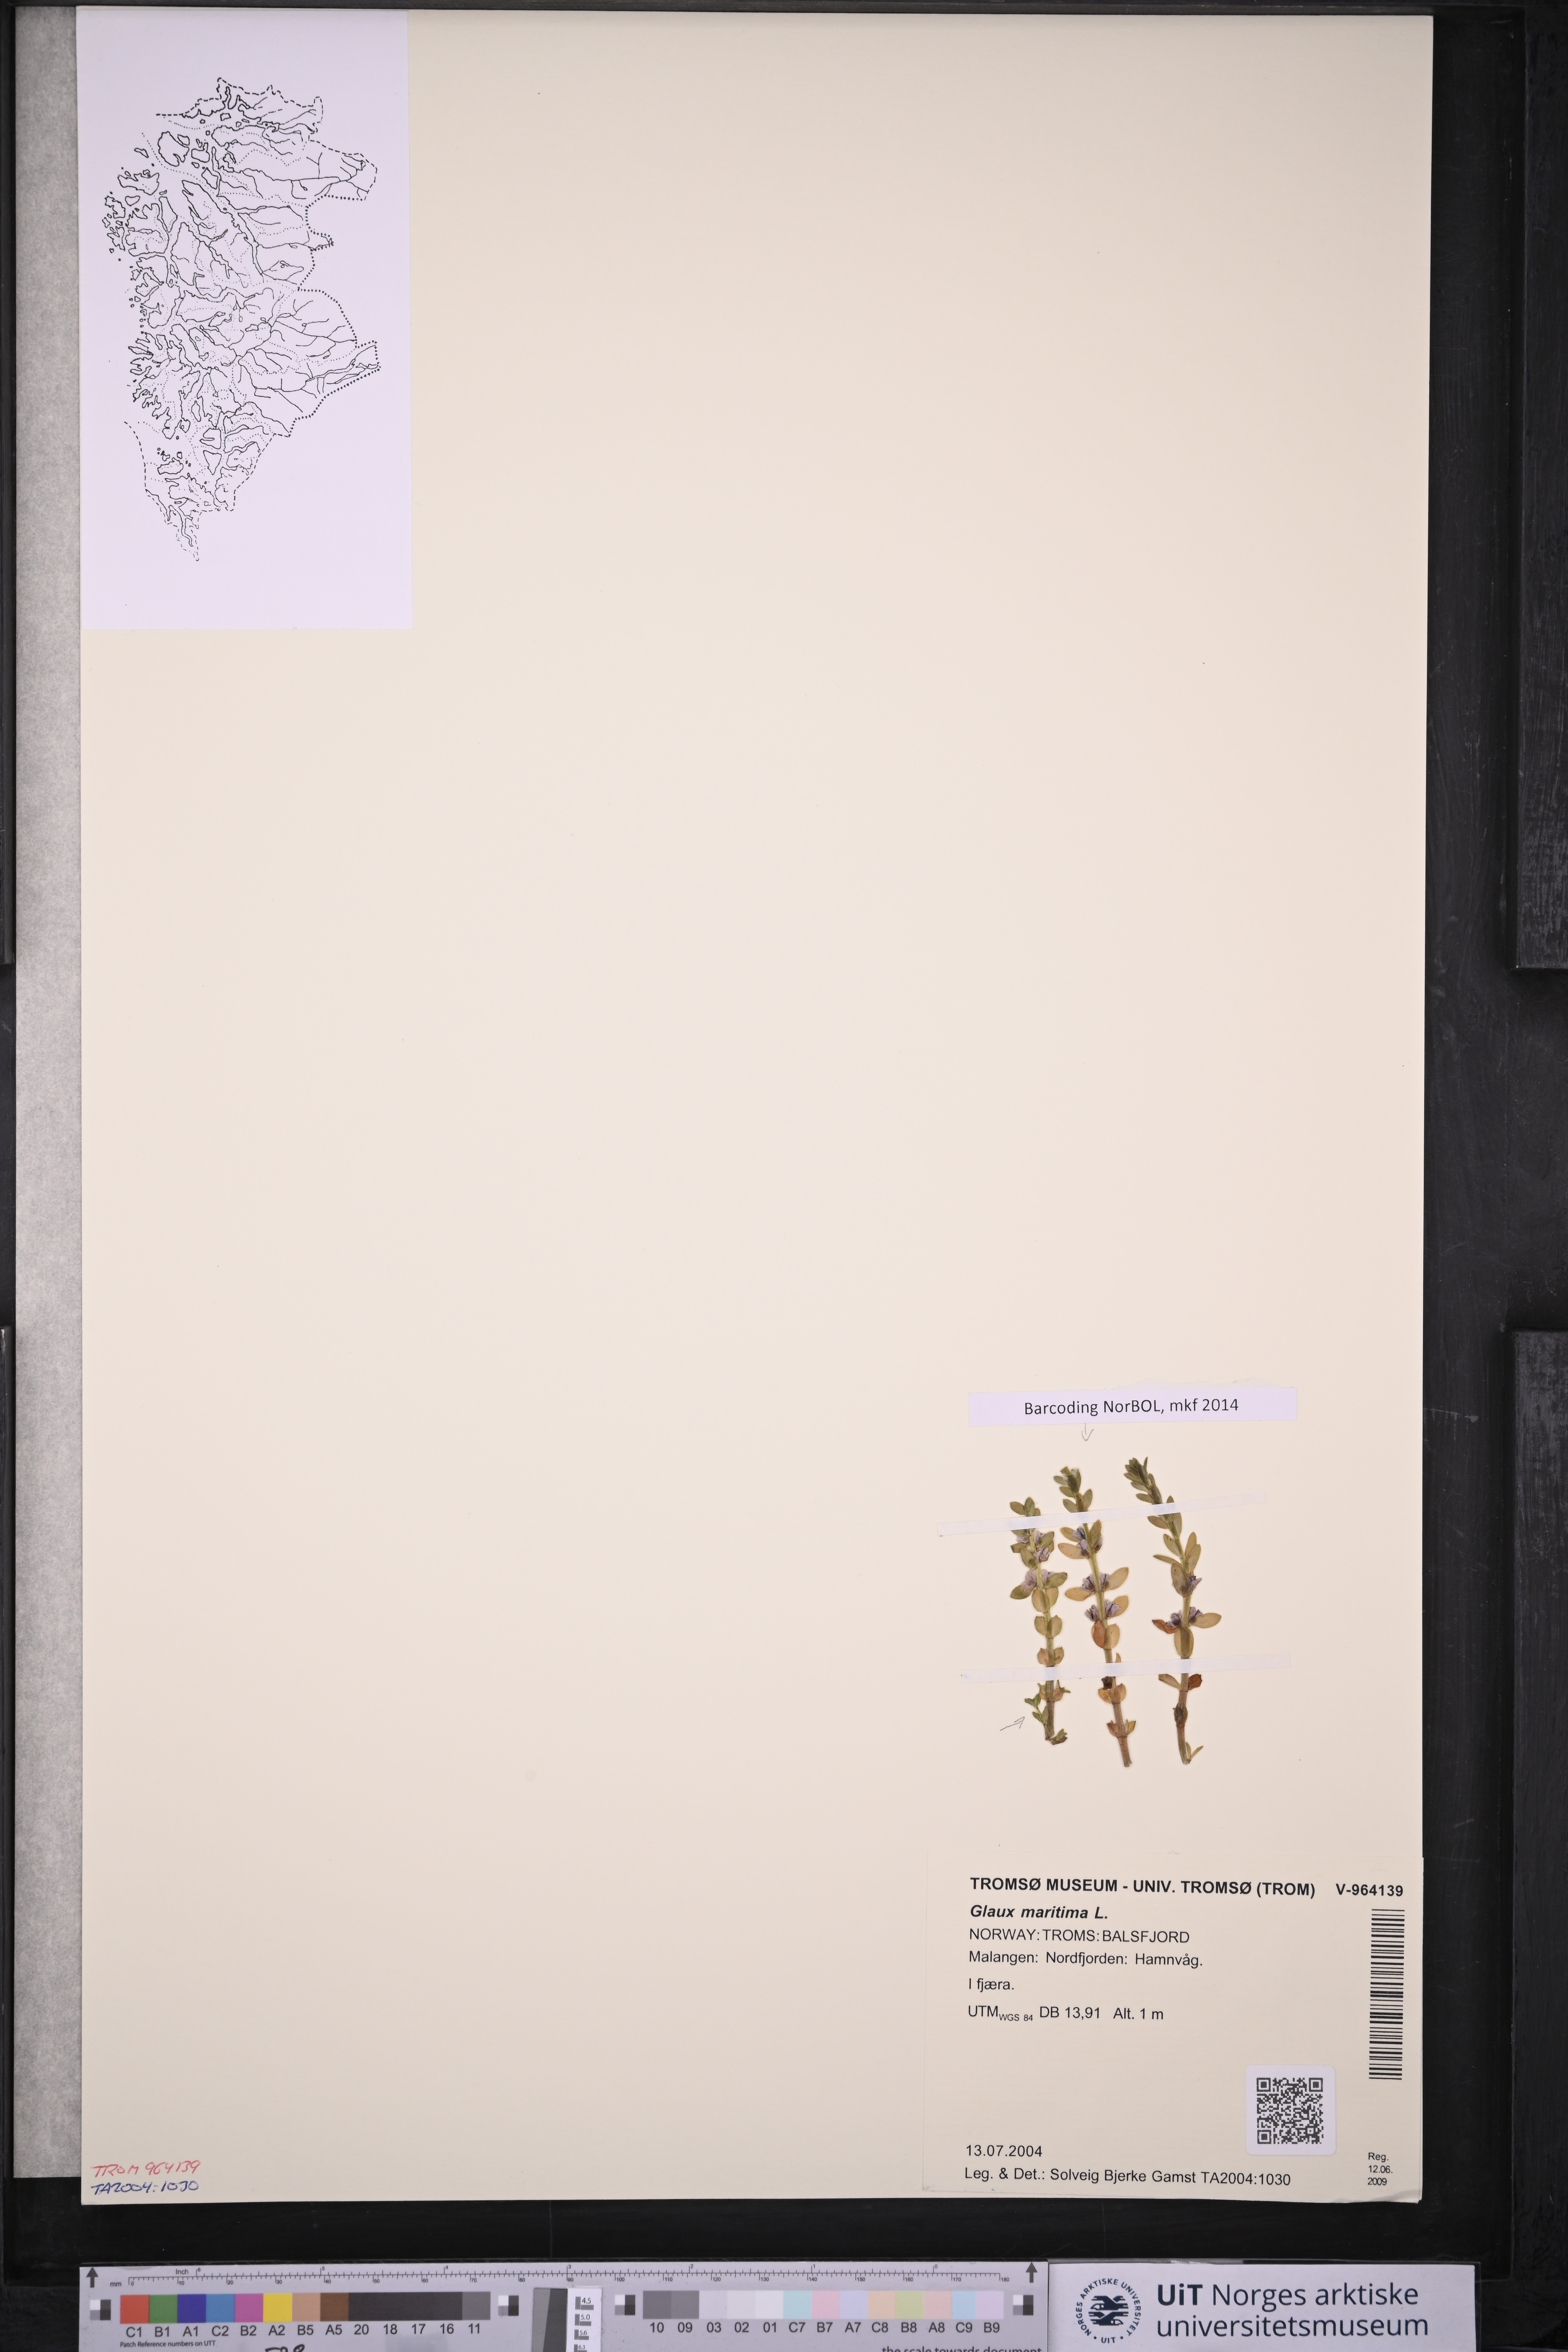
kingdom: Plantae
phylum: Tracheophyta
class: Magnoliopsida
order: Ericales
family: Primulaceae
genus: Lysimachia
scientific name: Lysimachia maritima
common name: Sea milkwort
